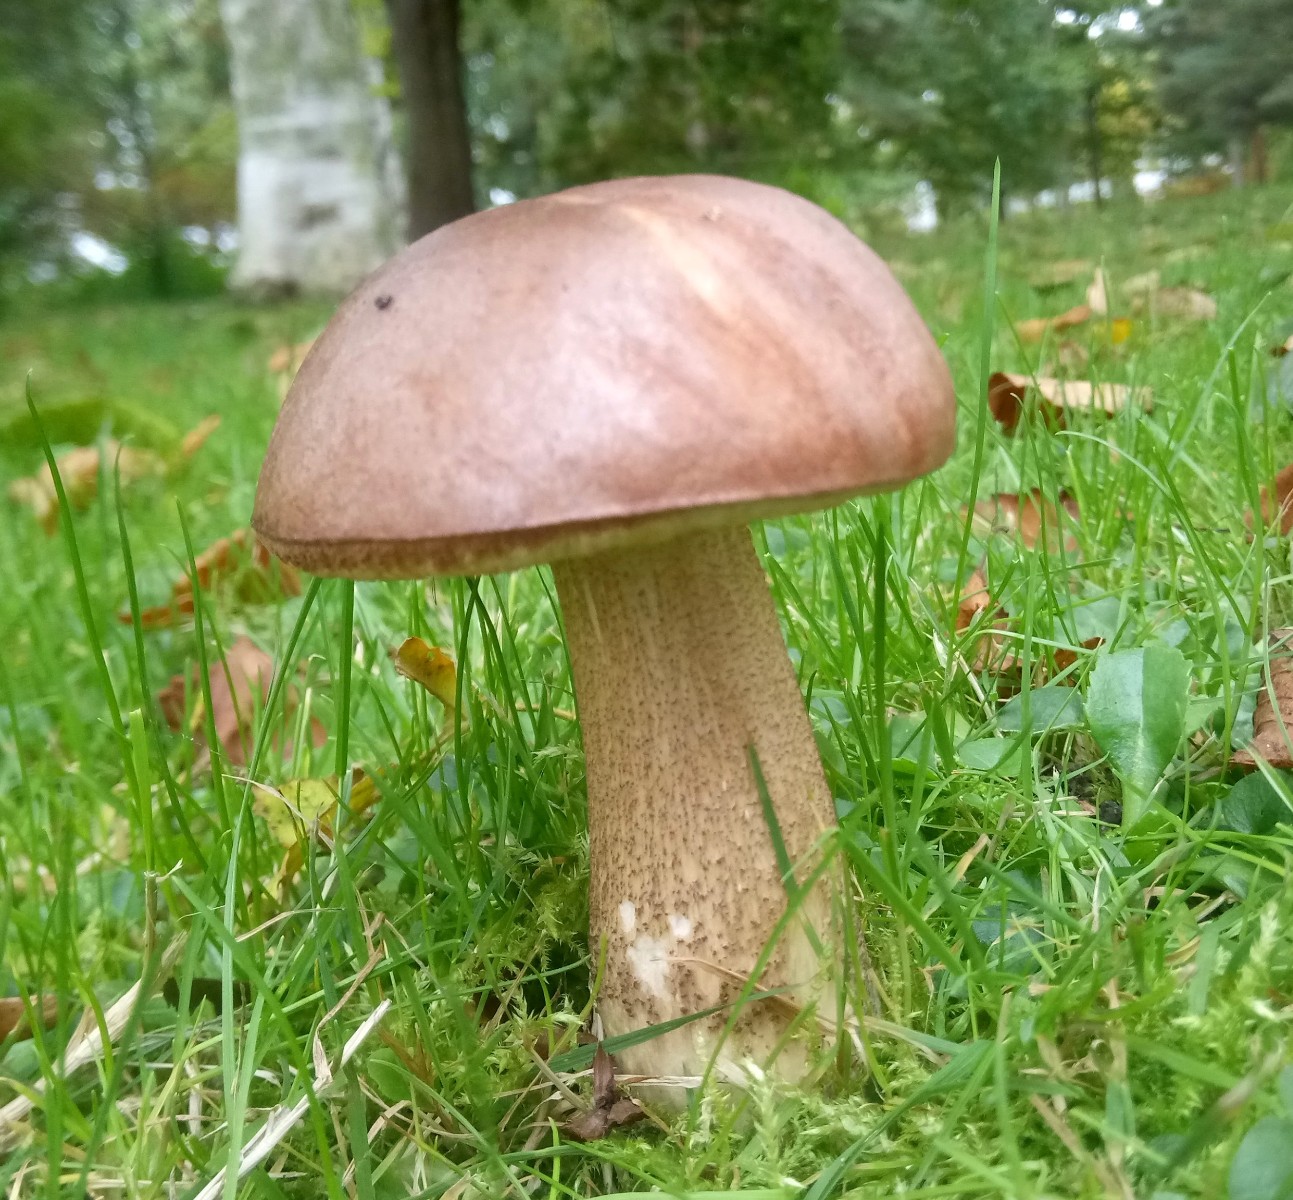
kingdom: Fungi
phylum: Basidiomycota
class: Agaricomycetes
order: Boletales
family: Boletaceae
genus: Leccinum
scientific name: Leccinum scabrum
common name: brun skælrørhat
